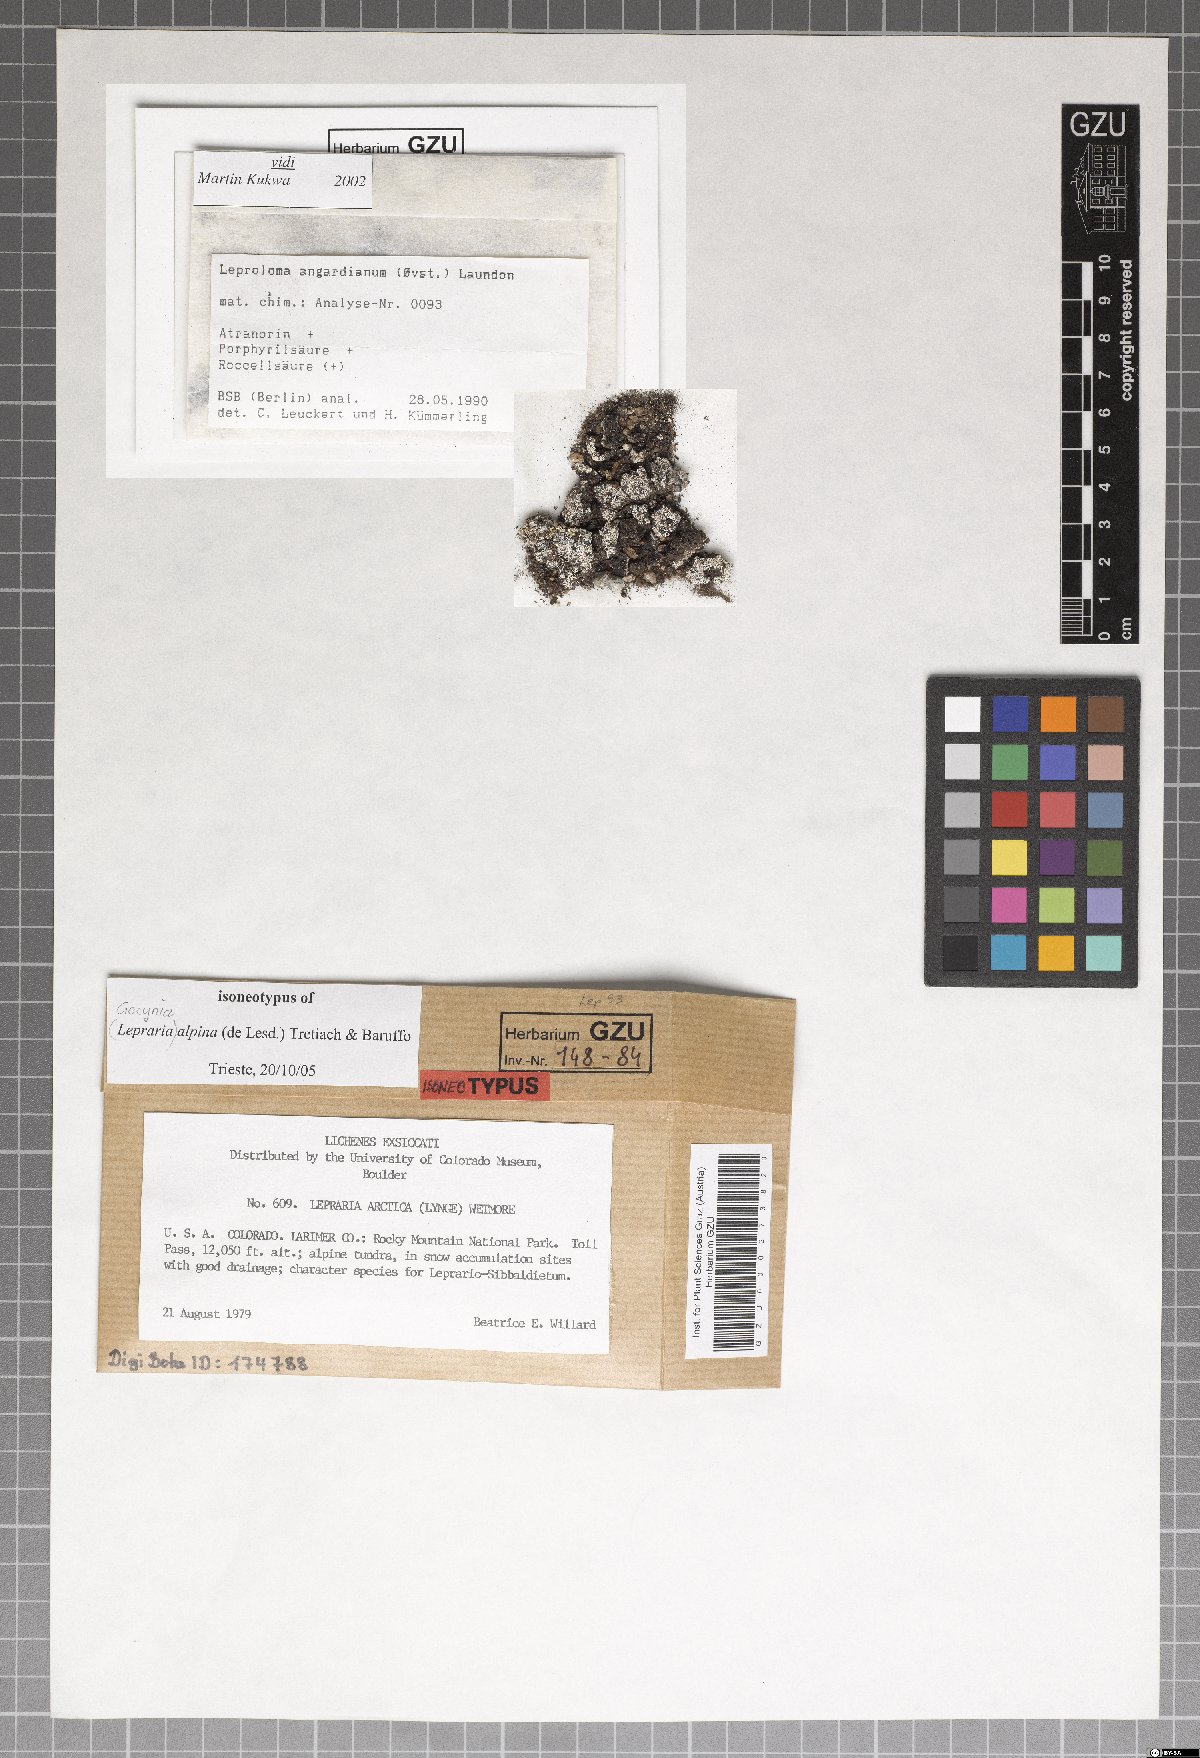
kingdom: Fungi
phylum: Ascomycota
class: Lecanoromycetes
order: Lecanorales
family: Stereocaulaceae
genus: Lepraria
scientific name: Lepraria alpina
